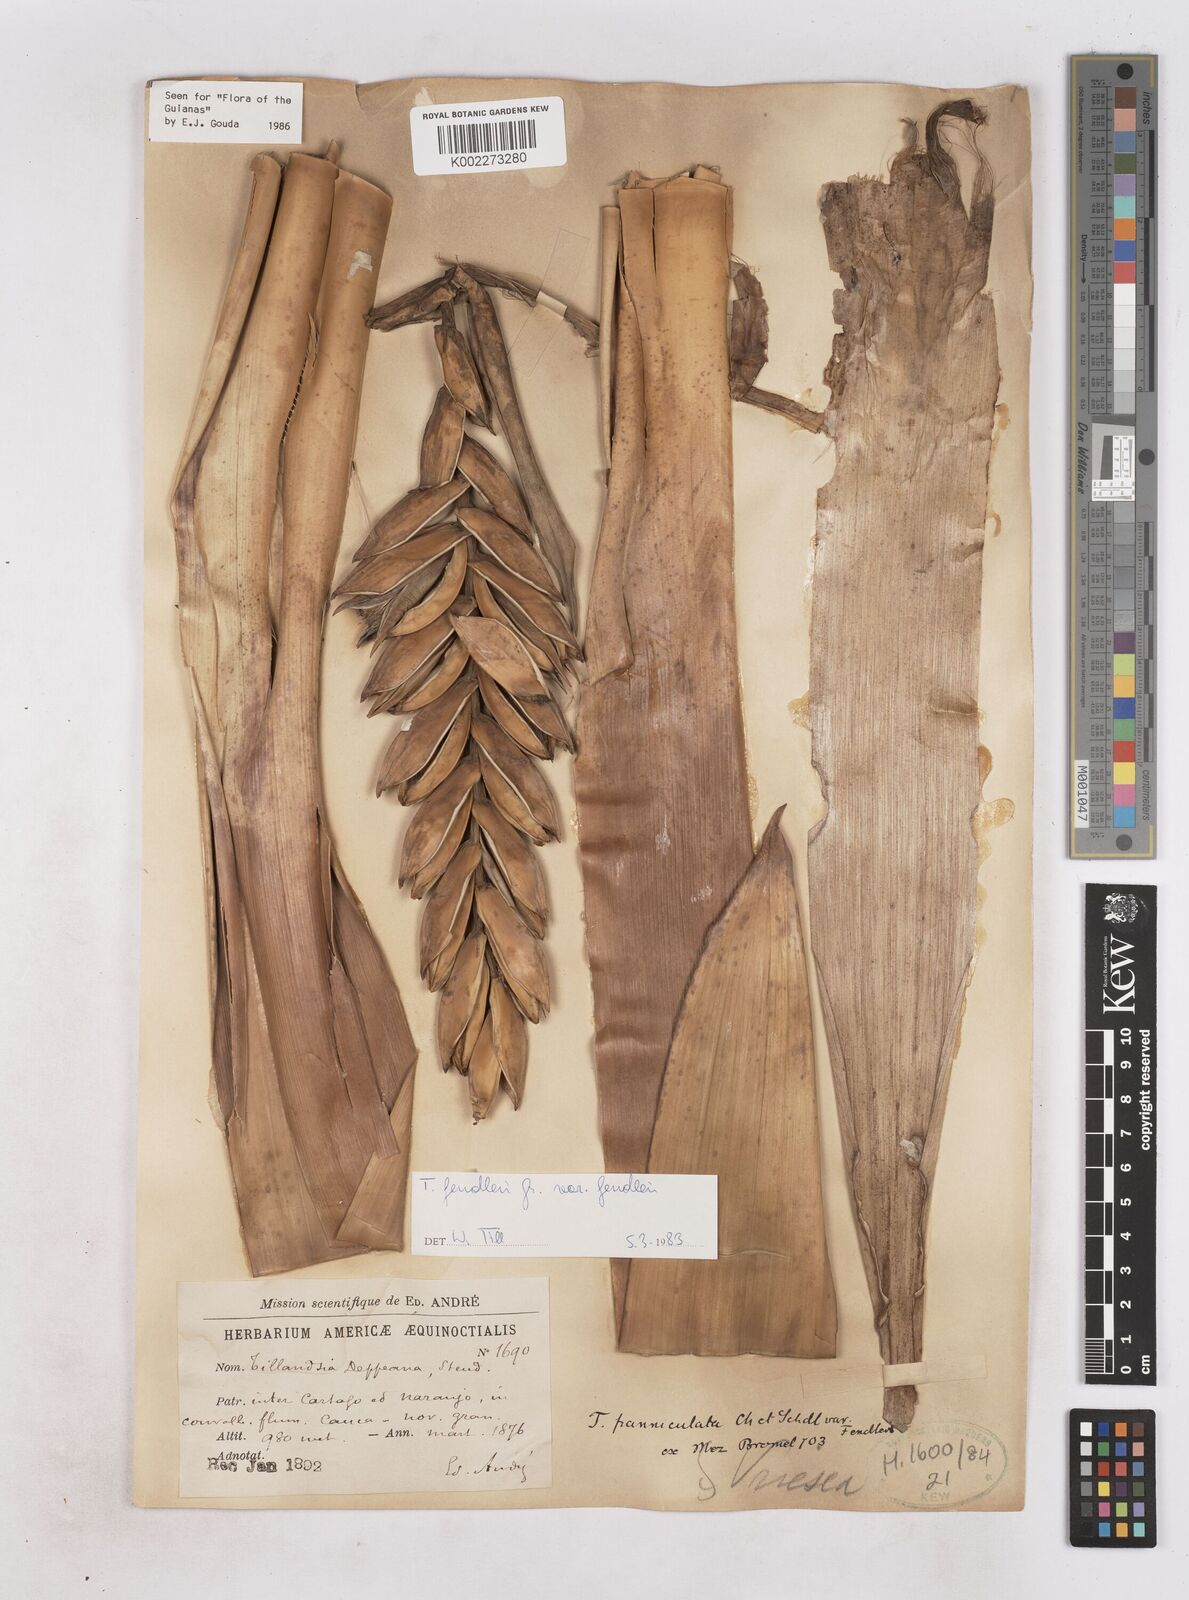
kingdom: Plantae
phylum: Tracheophyta
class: Liliopsida
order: Poales
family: Bromeliaceae
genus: Tillandsia
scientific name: Tillandsia fendleri
